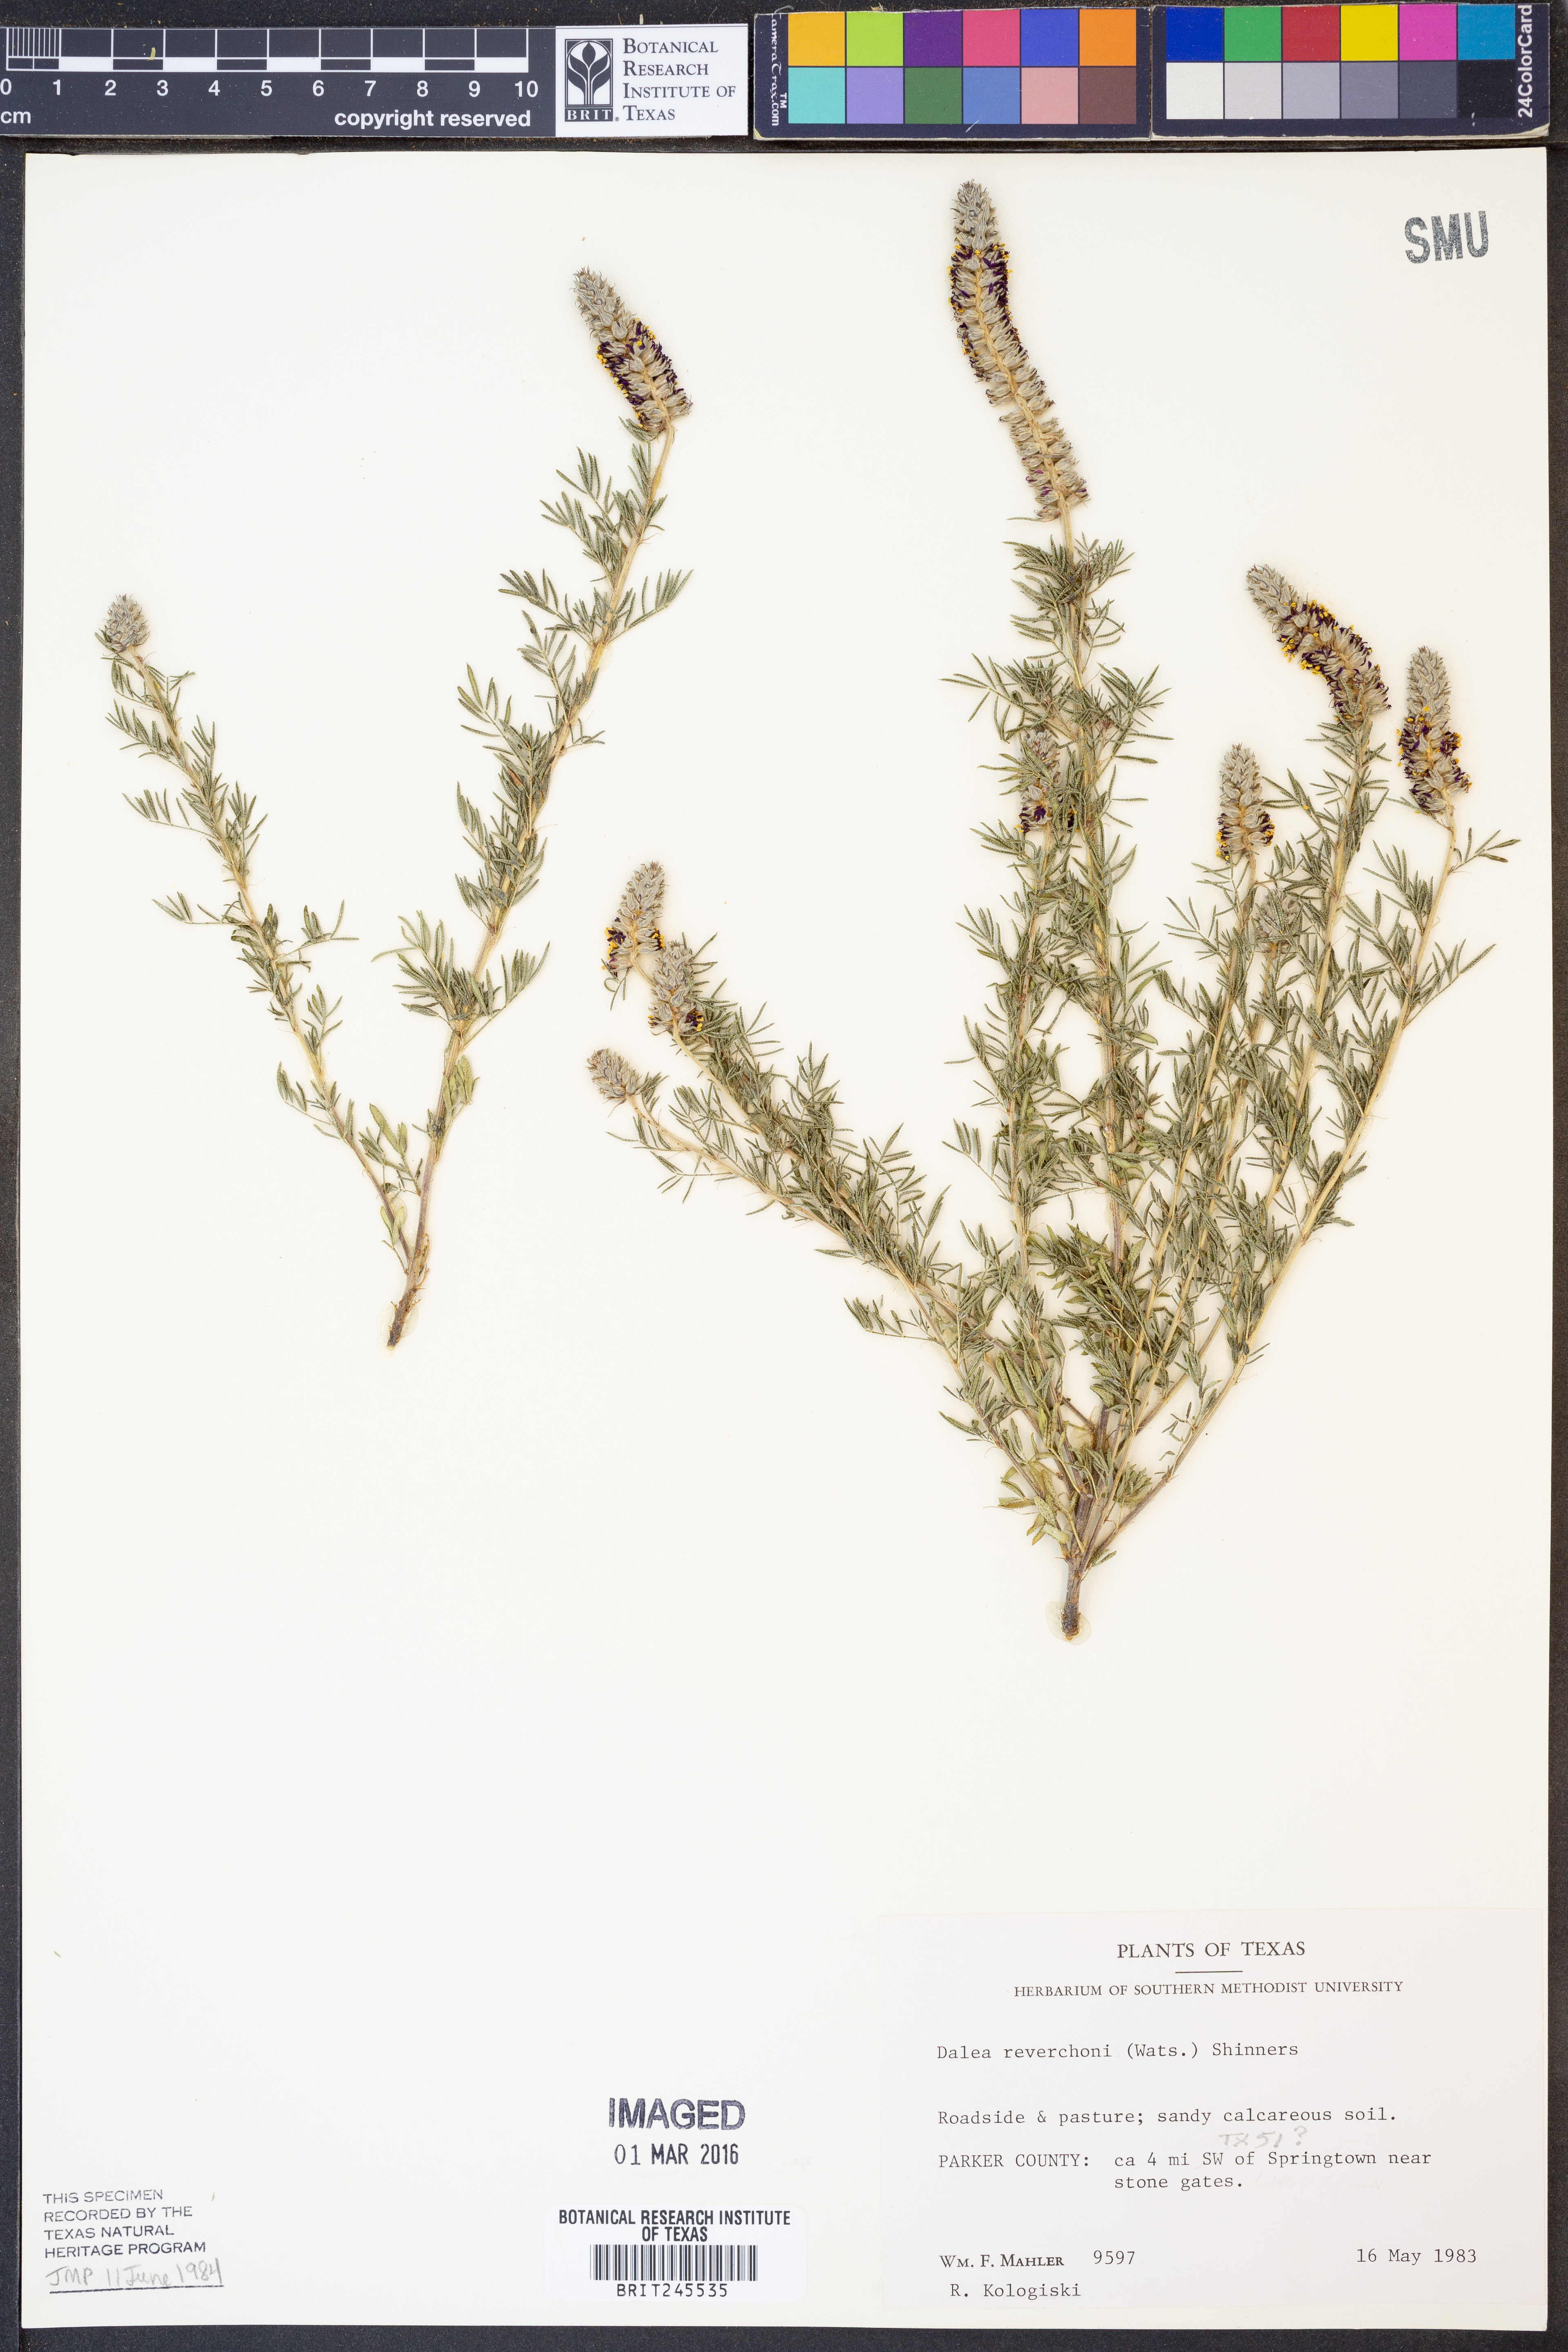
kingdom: Plantae
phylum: Tracheophyta
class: Magnoliopsida
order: Fabales
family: Fabaceae
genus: Dalea
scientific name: Dalea reverchonii
